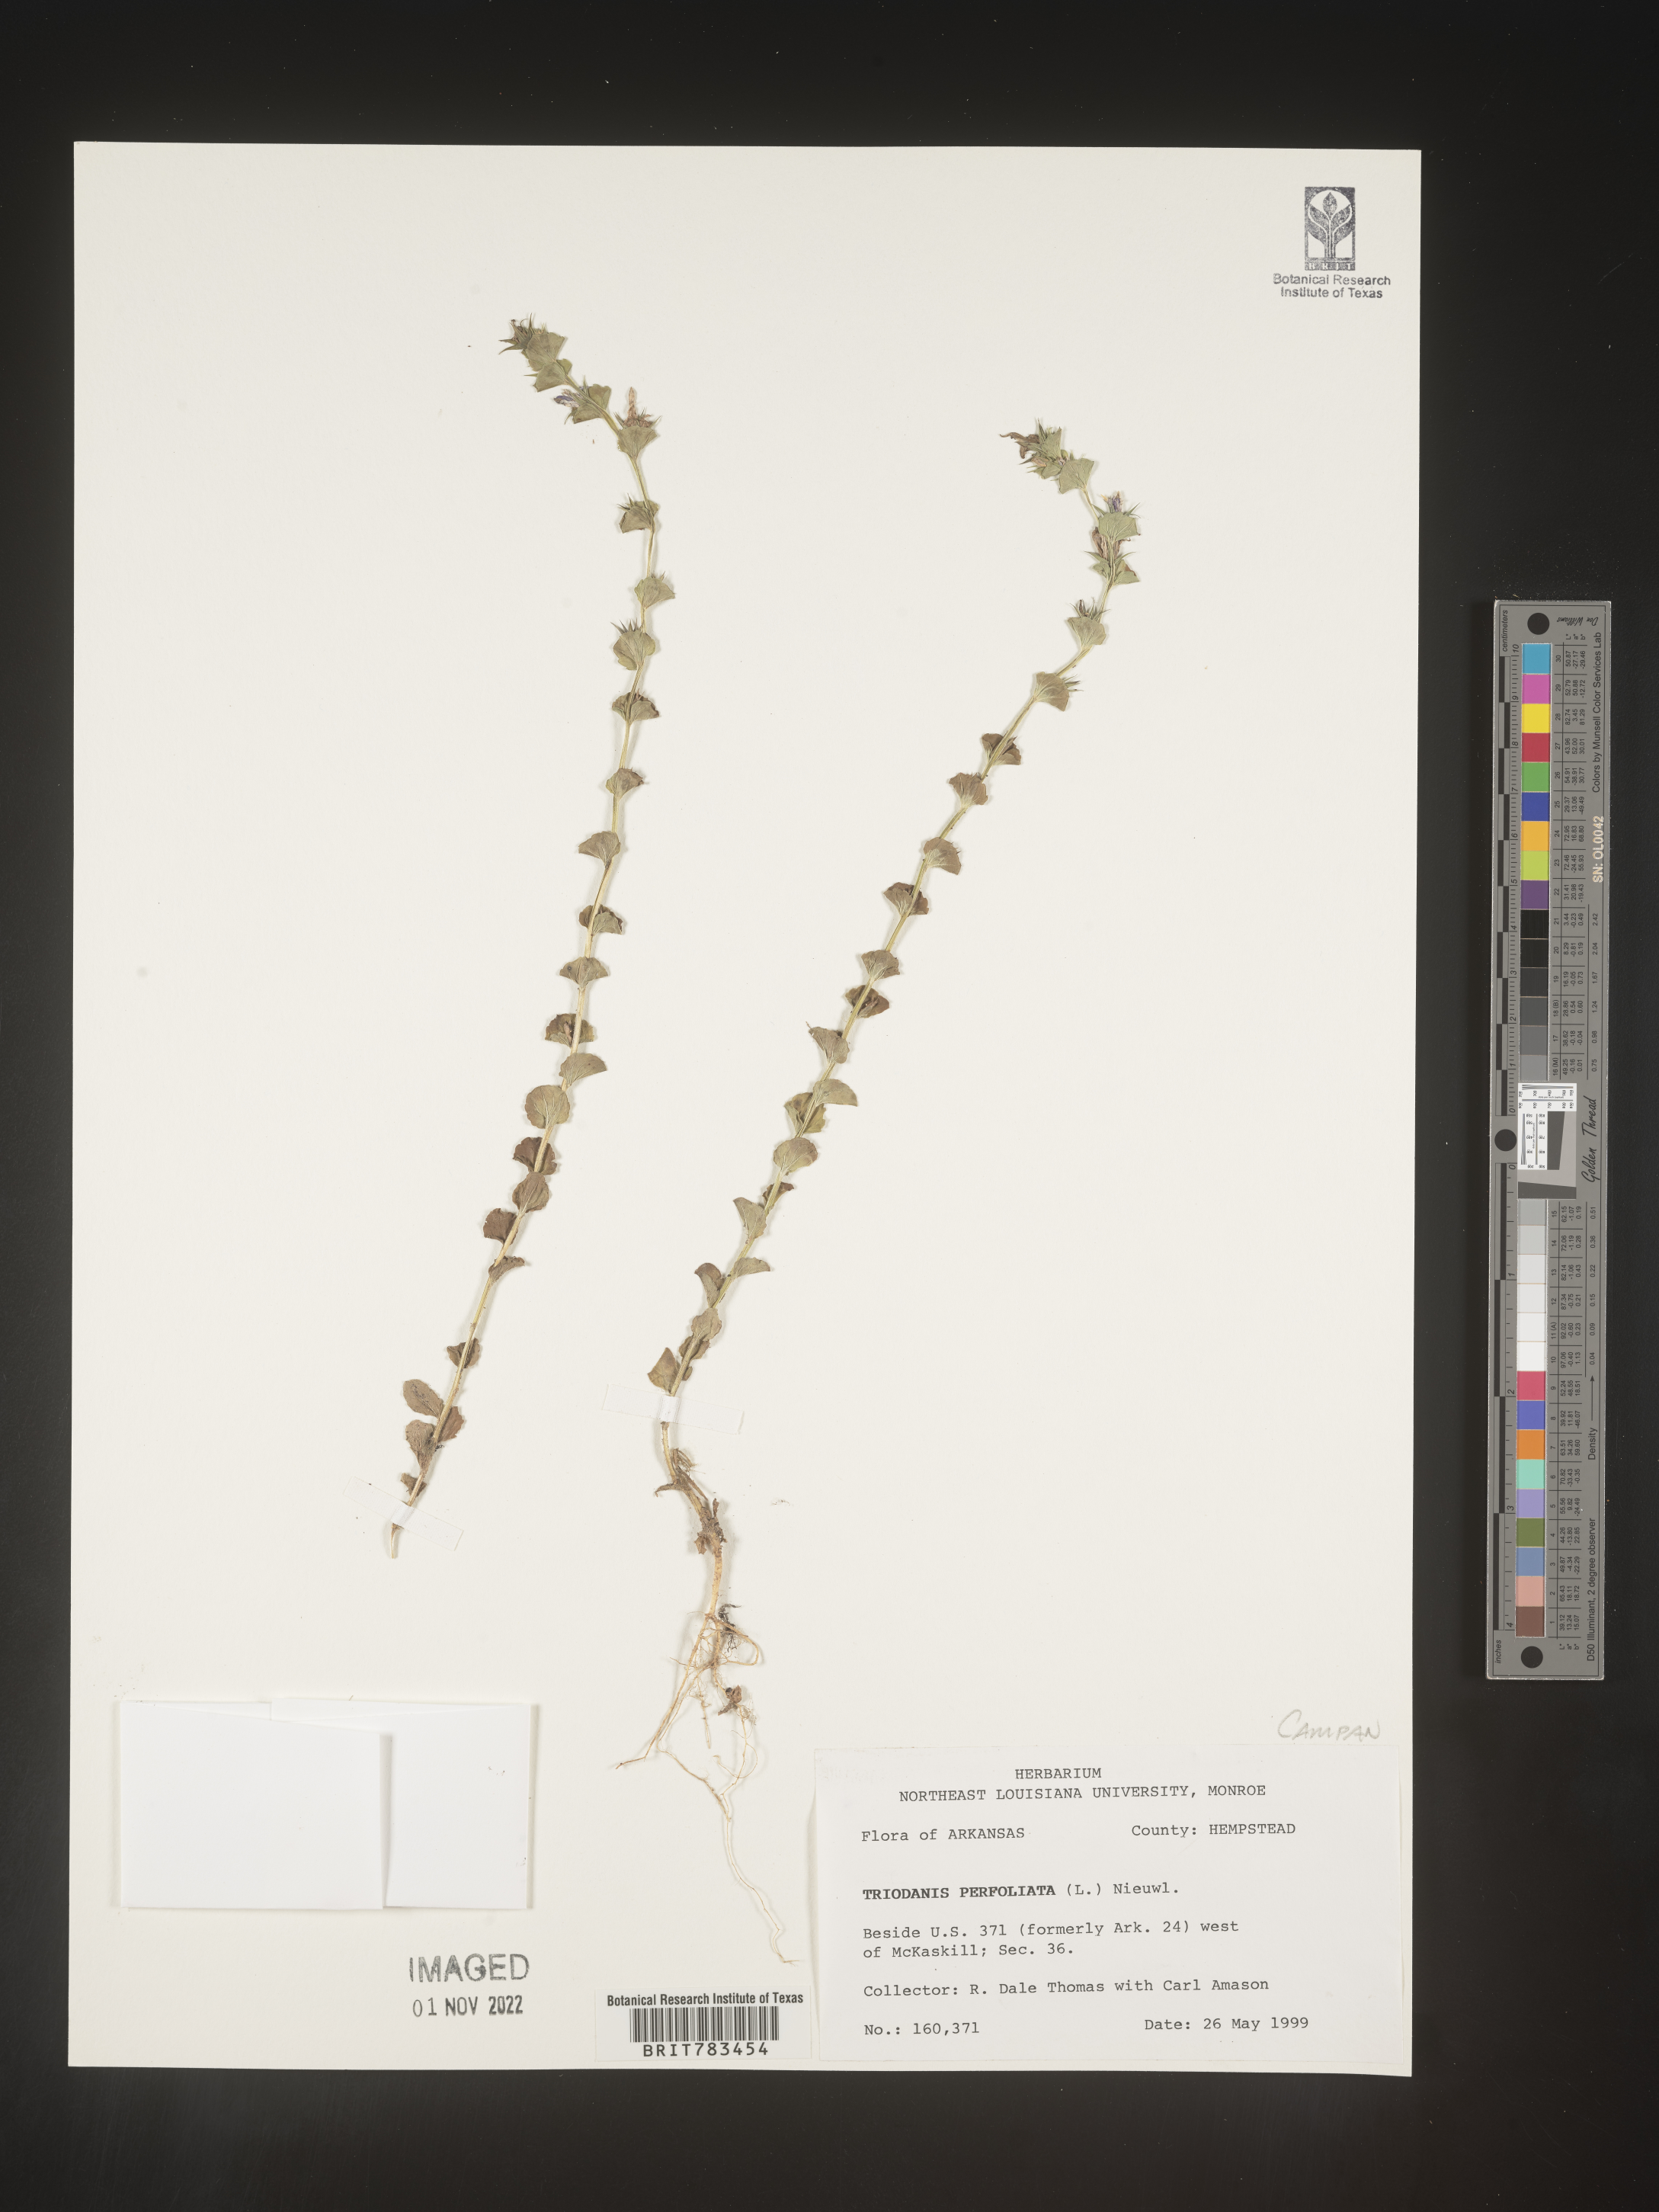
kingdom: Plantae
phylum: Tracheophyta
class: Magnoliopsida
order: Asterales
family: Campanulaceae
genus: Triodanis
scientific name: Triodanis perfoliata
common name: Clasping venus' looking-glass
